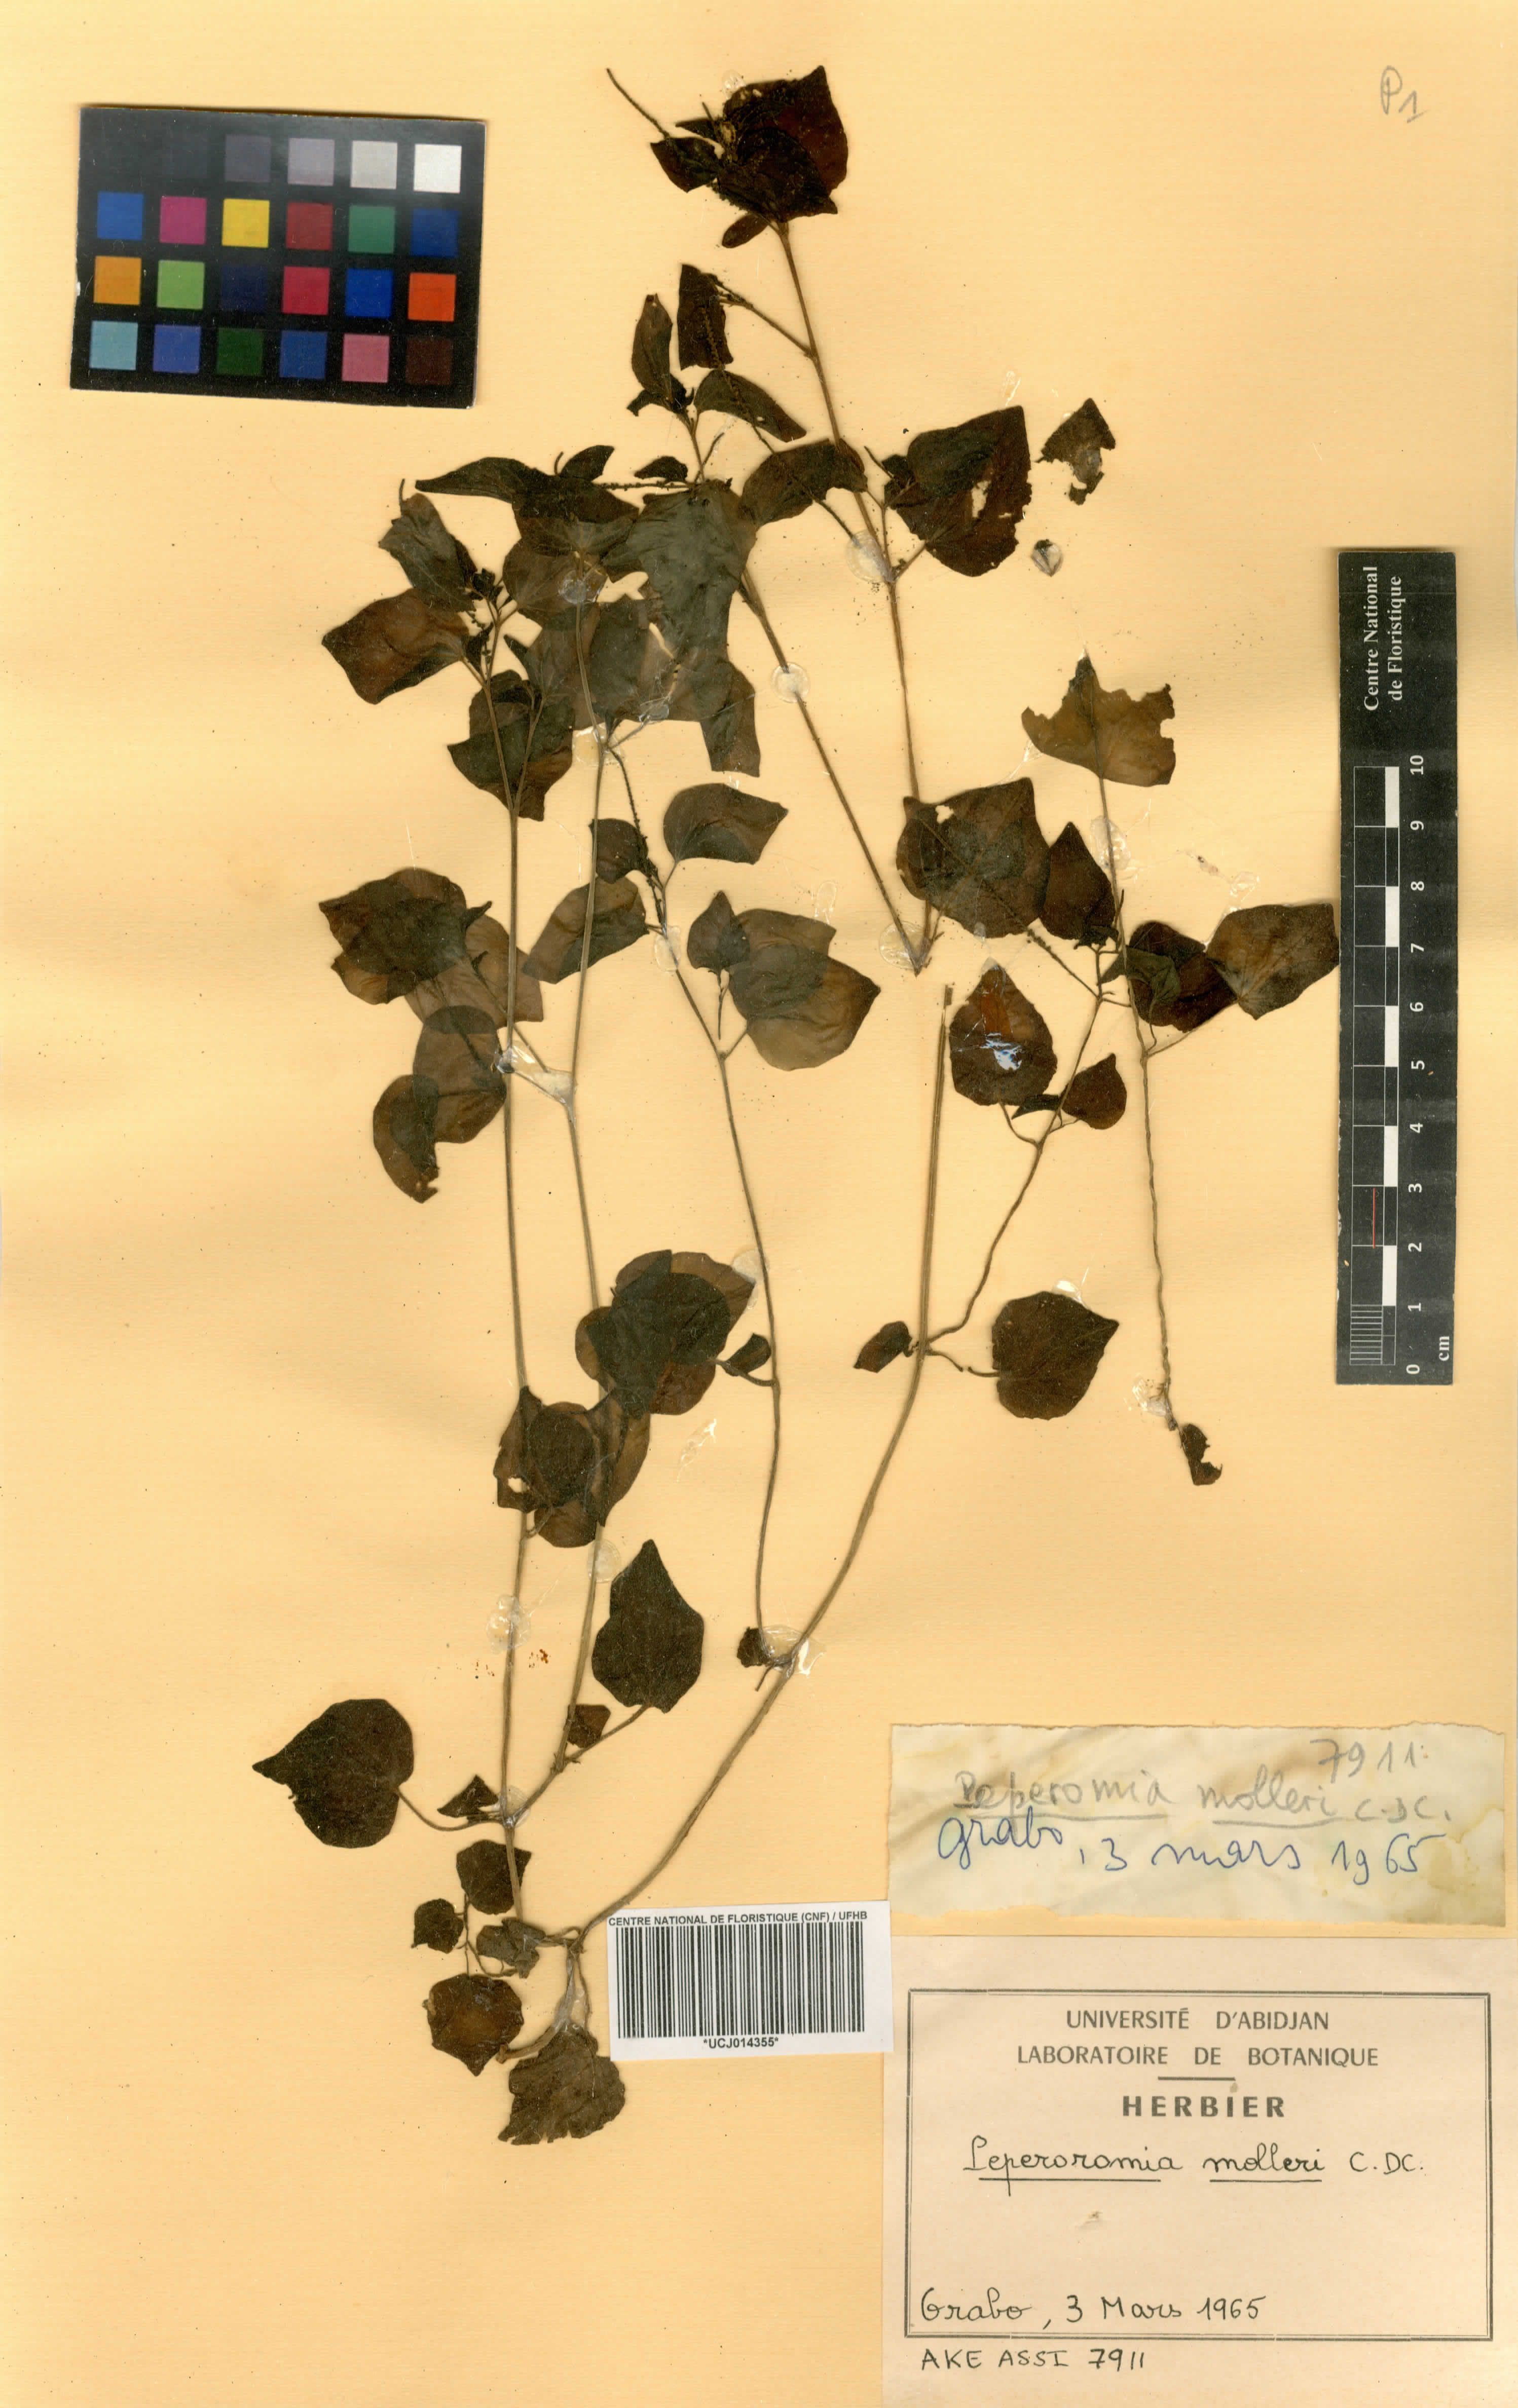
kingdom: Plantae
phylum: Tracheophyta
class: Magnoliopsida
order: Piperales
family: Piperaceae
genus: Peperomia
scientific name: Peperomia molleri
